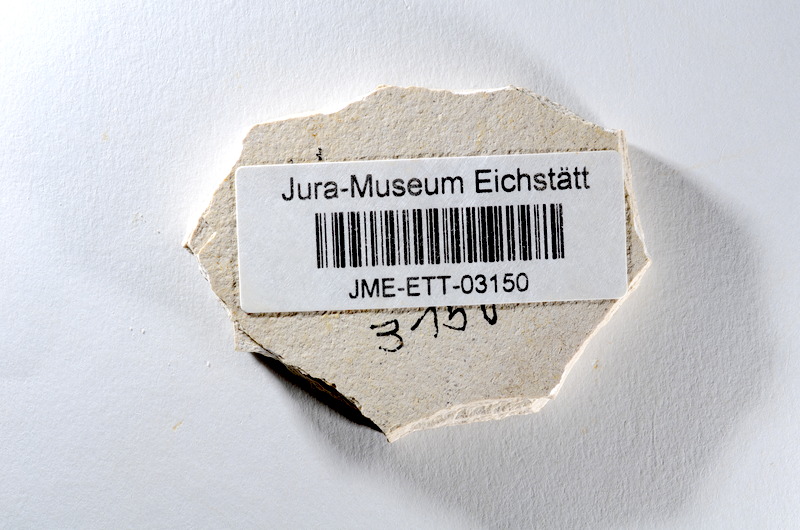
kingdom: Animalia
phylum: Chordata
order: Salmoniformes
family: Orthogonikleithridae
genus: Orthogonikleithrus
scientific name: Orthogonikleithrus hoelli
